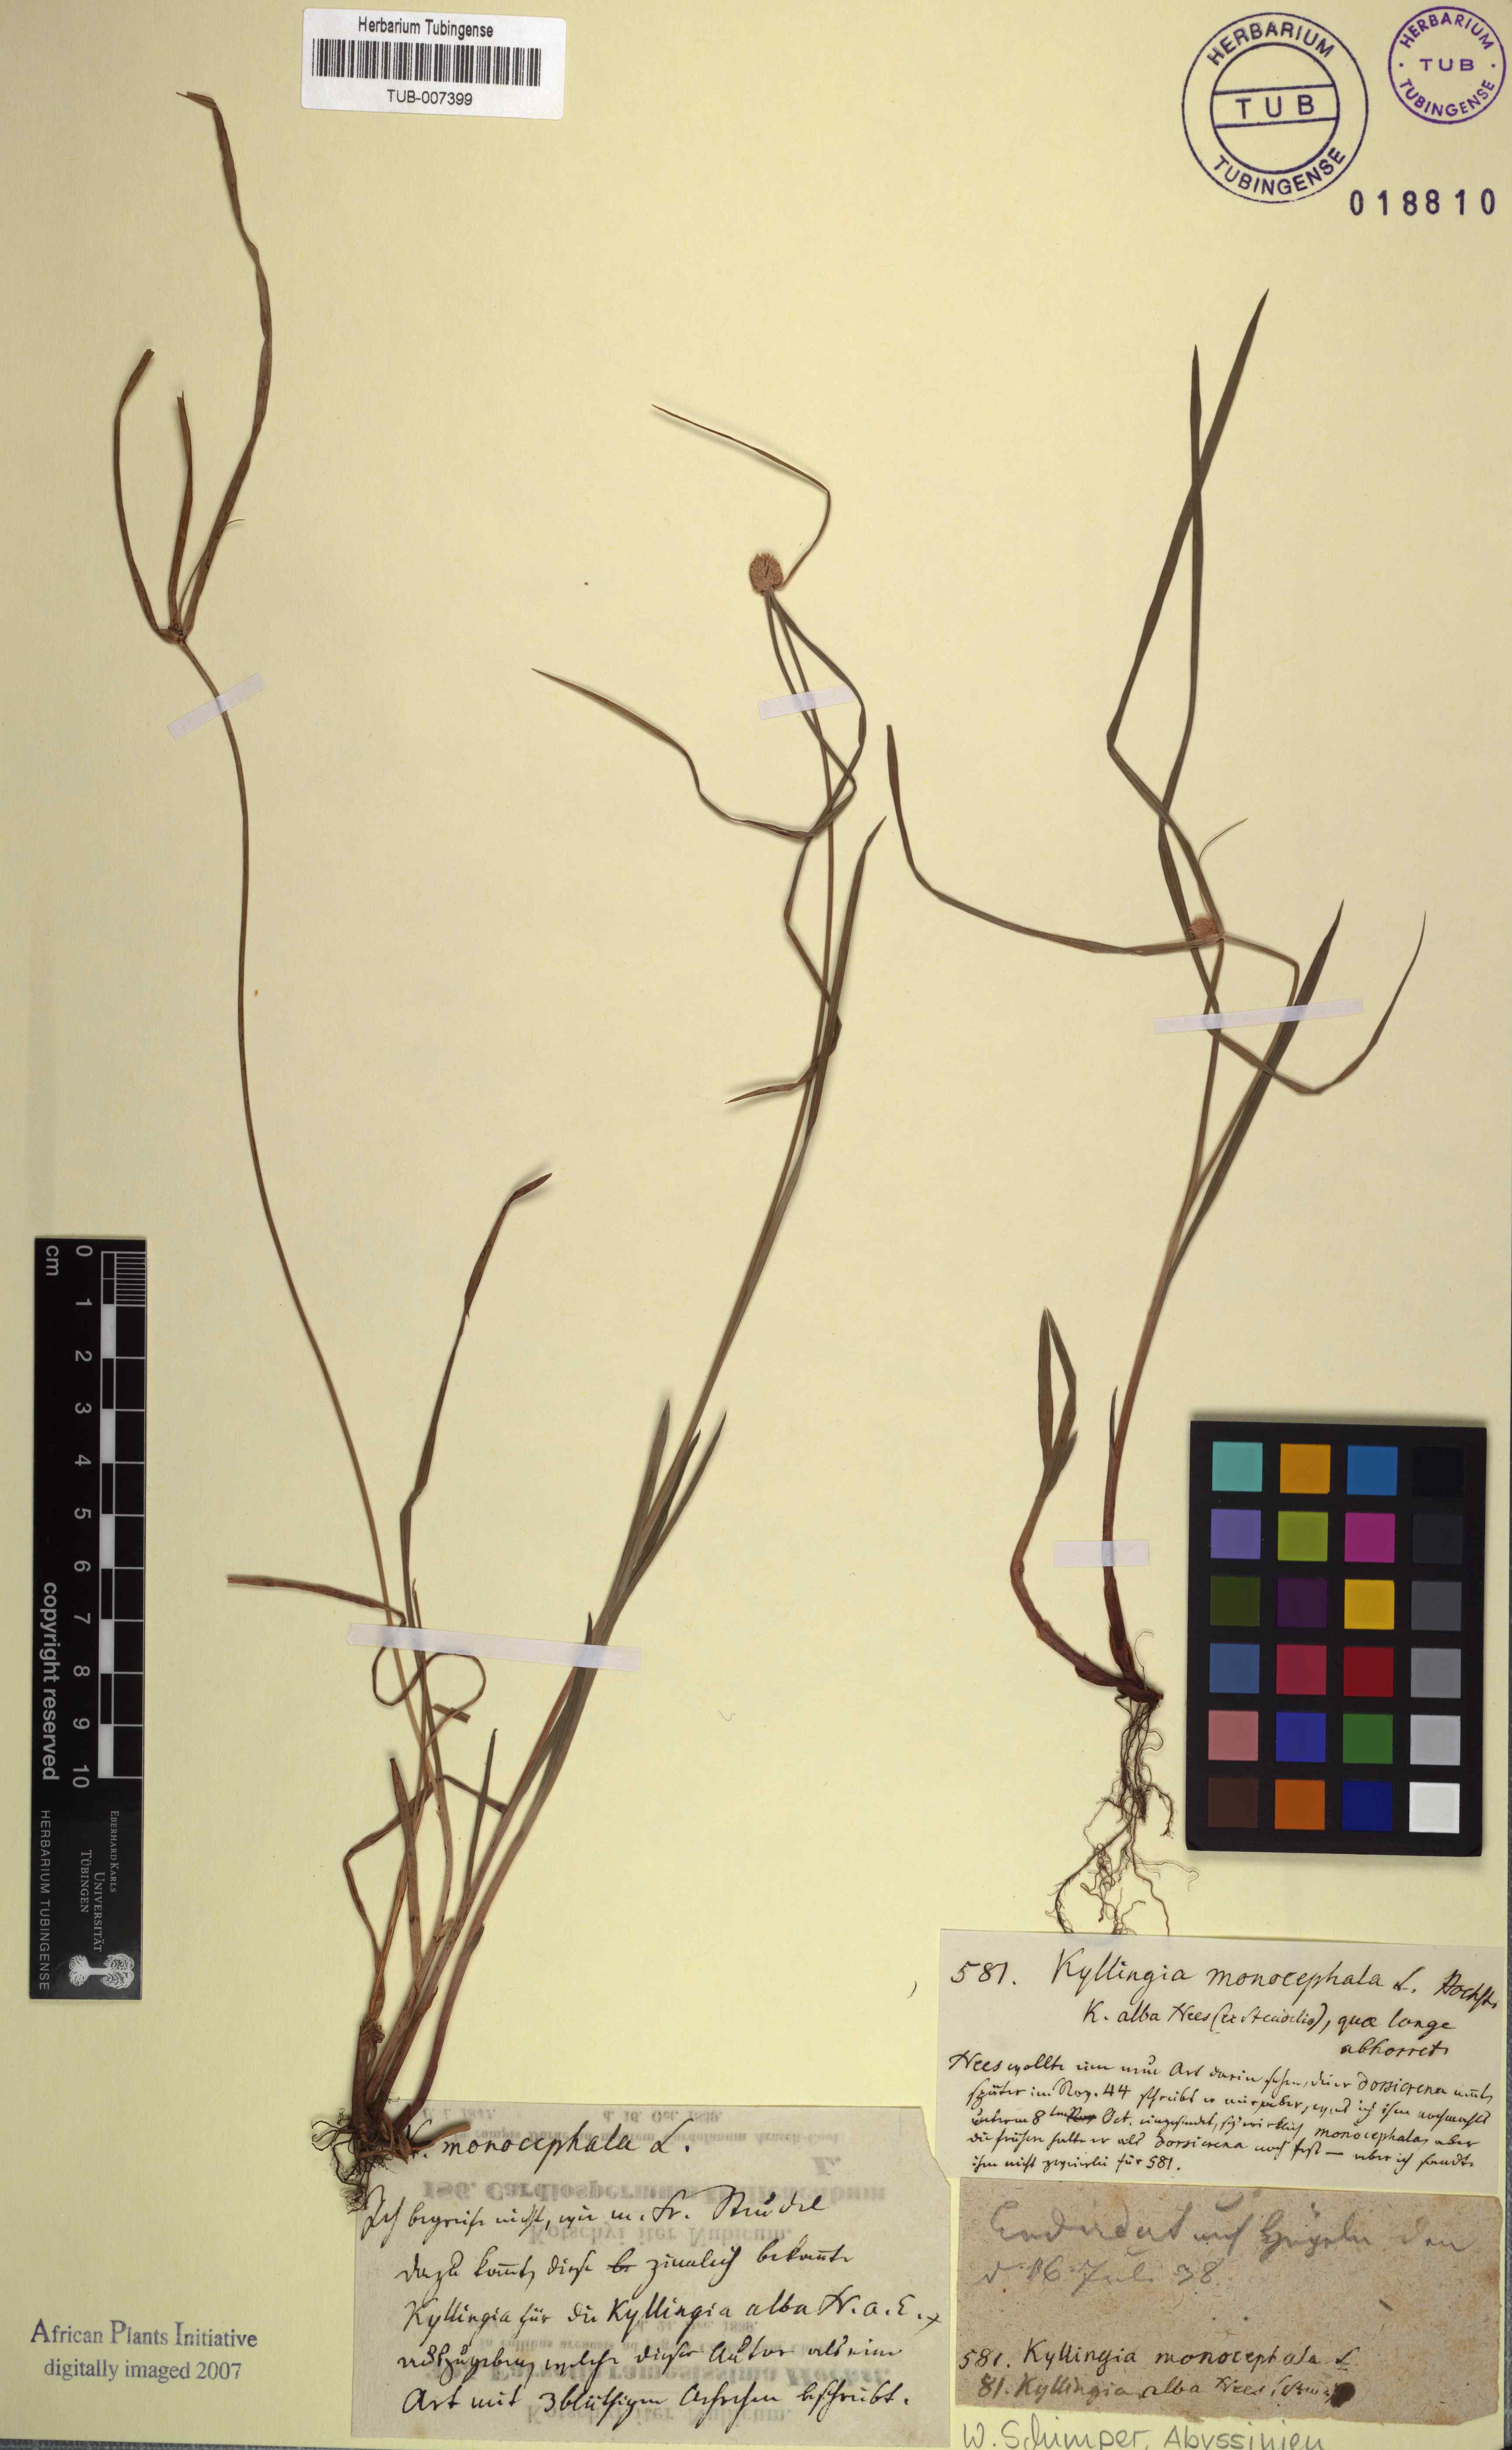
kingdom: Plantae
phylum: Tracheophyta
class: Liliopsida
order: Poales
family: Cyperaceae
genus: Cyperus
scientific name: Cyperus brevifolius
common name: Globe kyllinga
